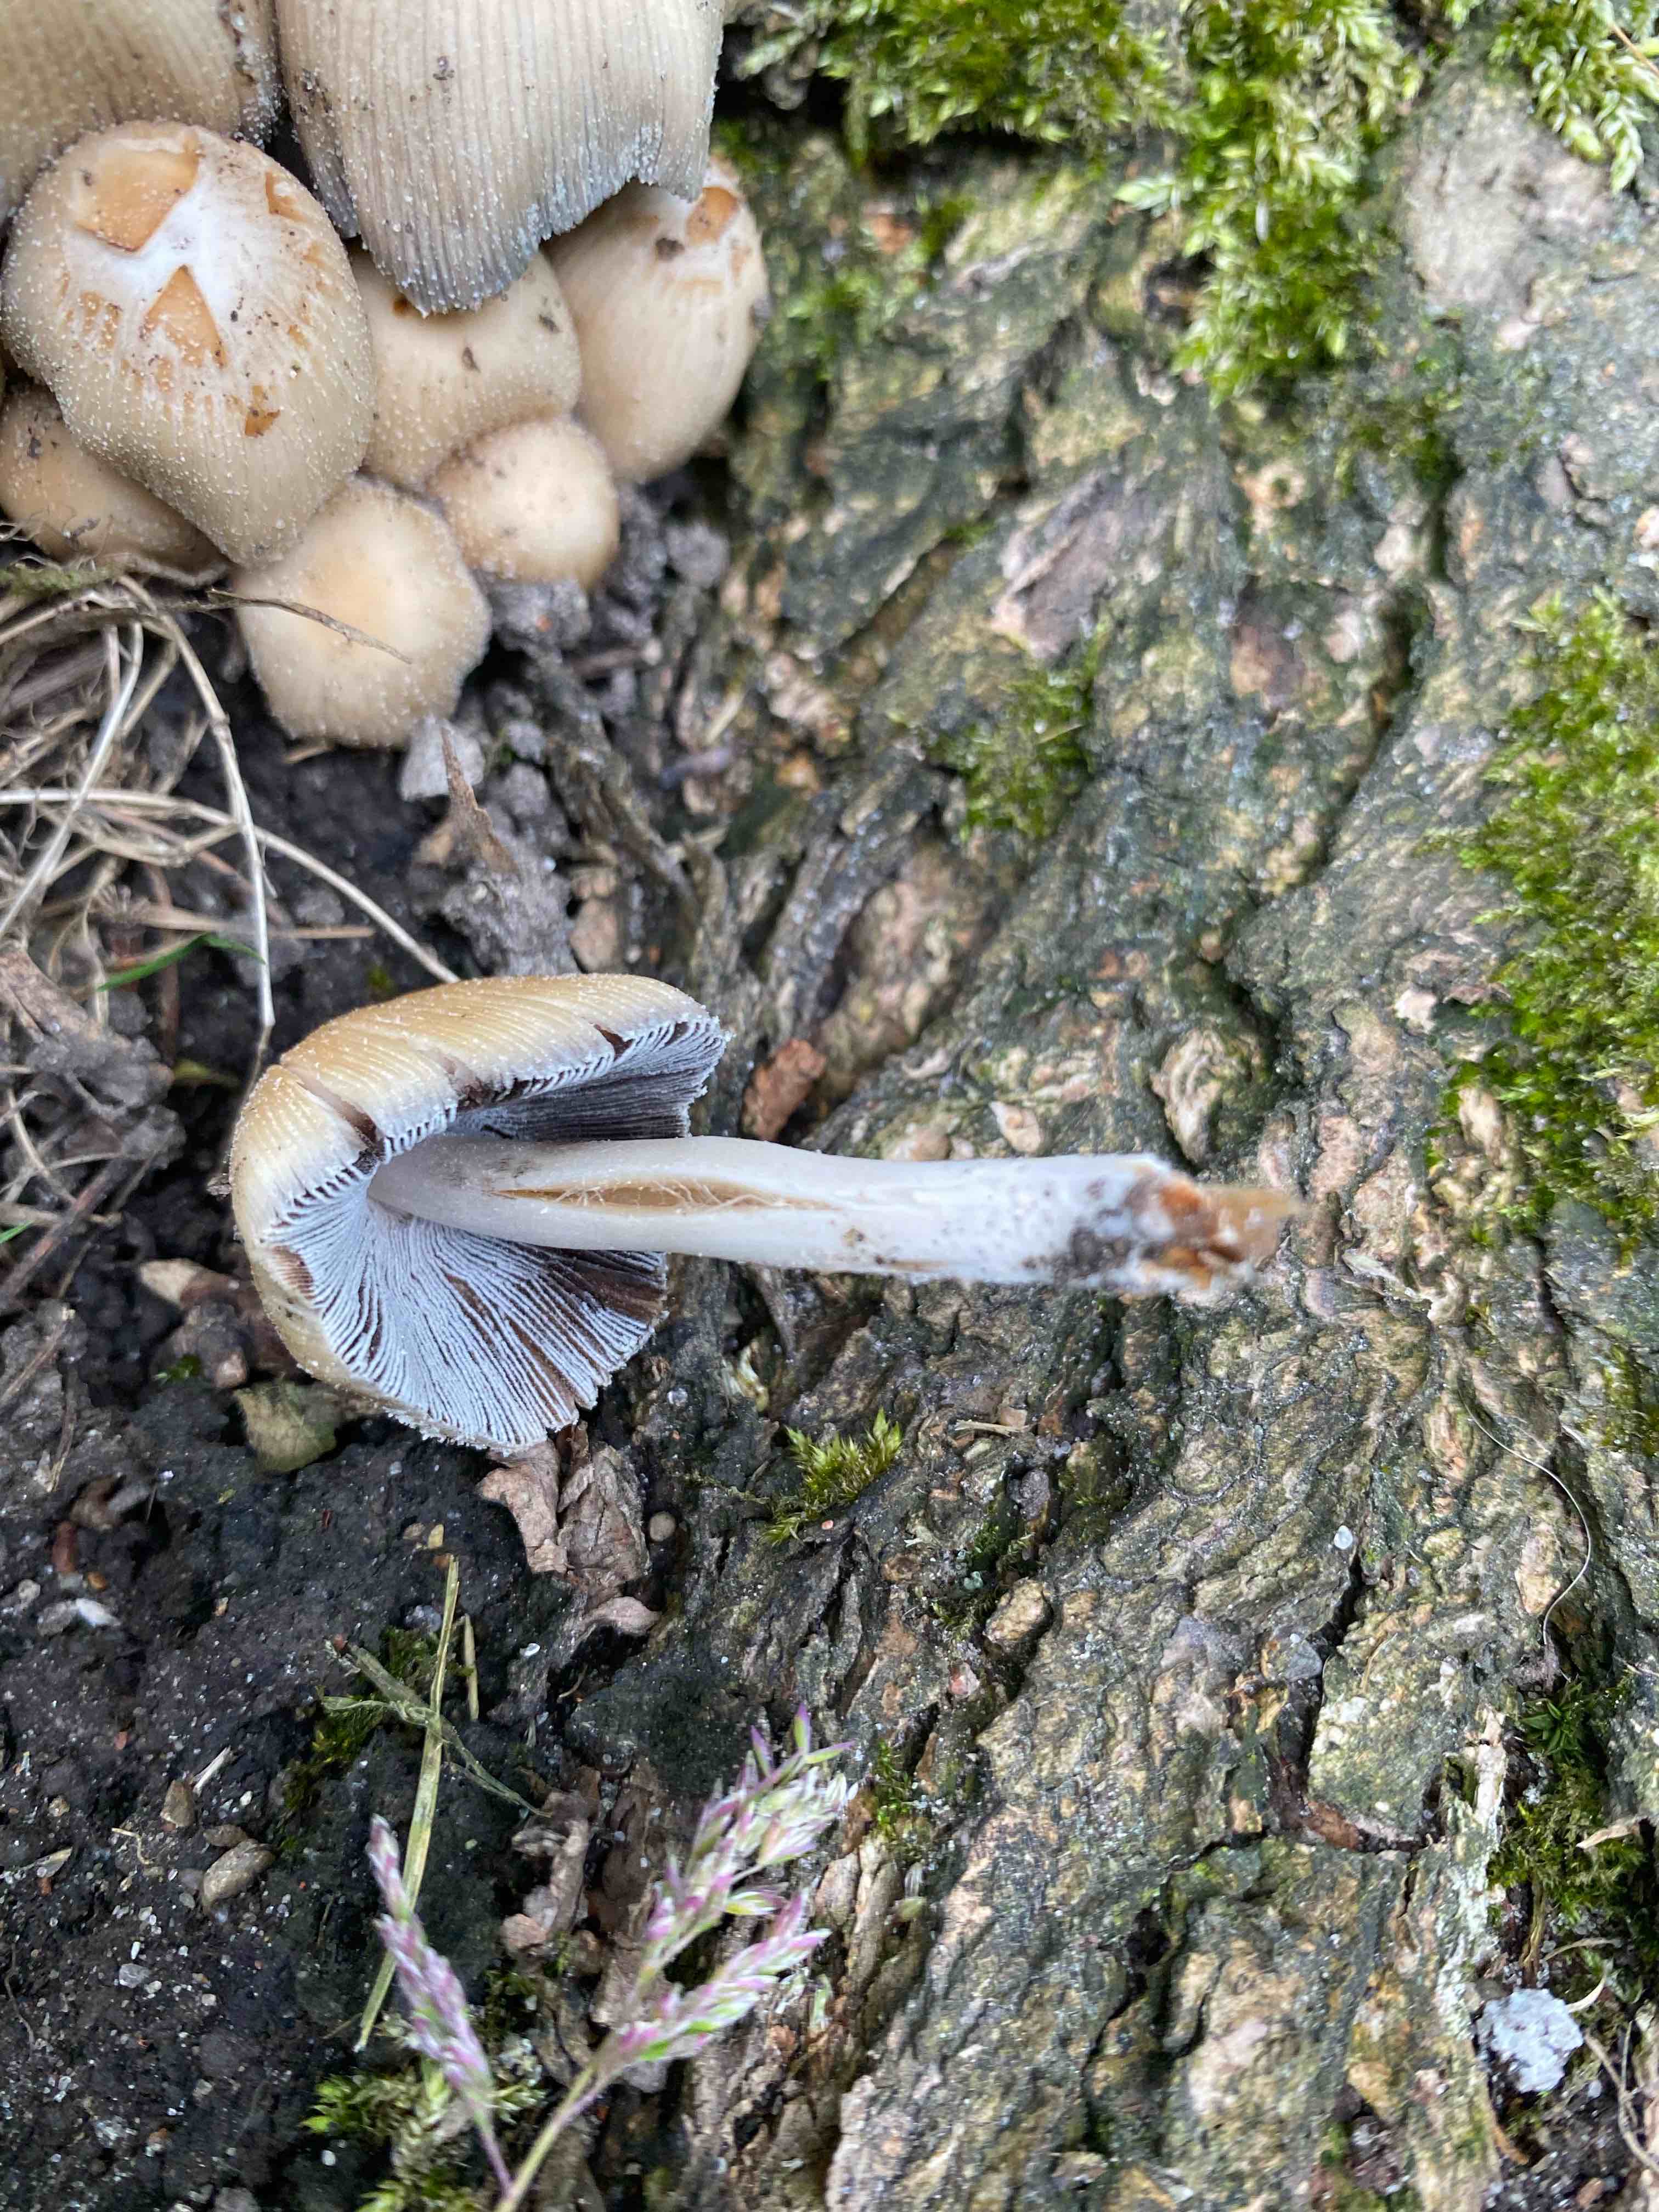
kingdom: Fungi
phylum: Basidiomycota
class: Agaricomycetes
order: Agaricales
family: Psathyrellaceae
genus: Coprinellus
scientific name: Coprinellus micaceus
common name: glimmer-blækhat
